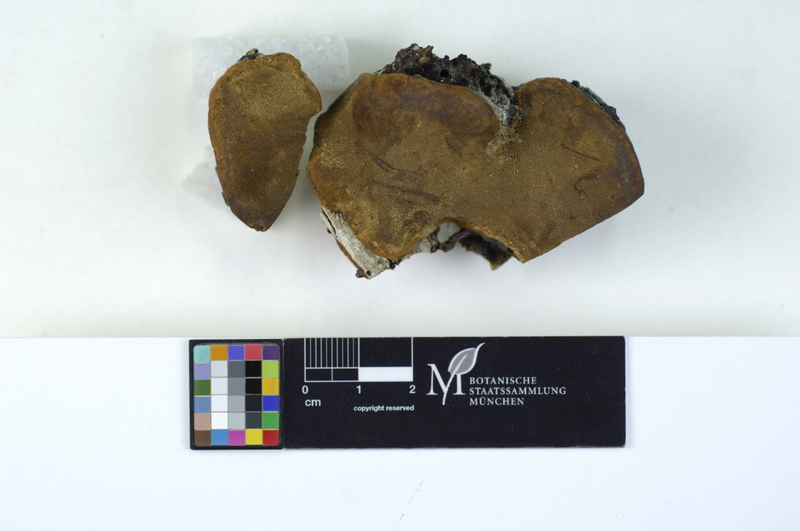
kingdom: Plantae
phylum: Tracheophyta
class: Magnoliopsida
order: Fagales
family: Betulaceae
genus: Betula
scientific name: Betula
